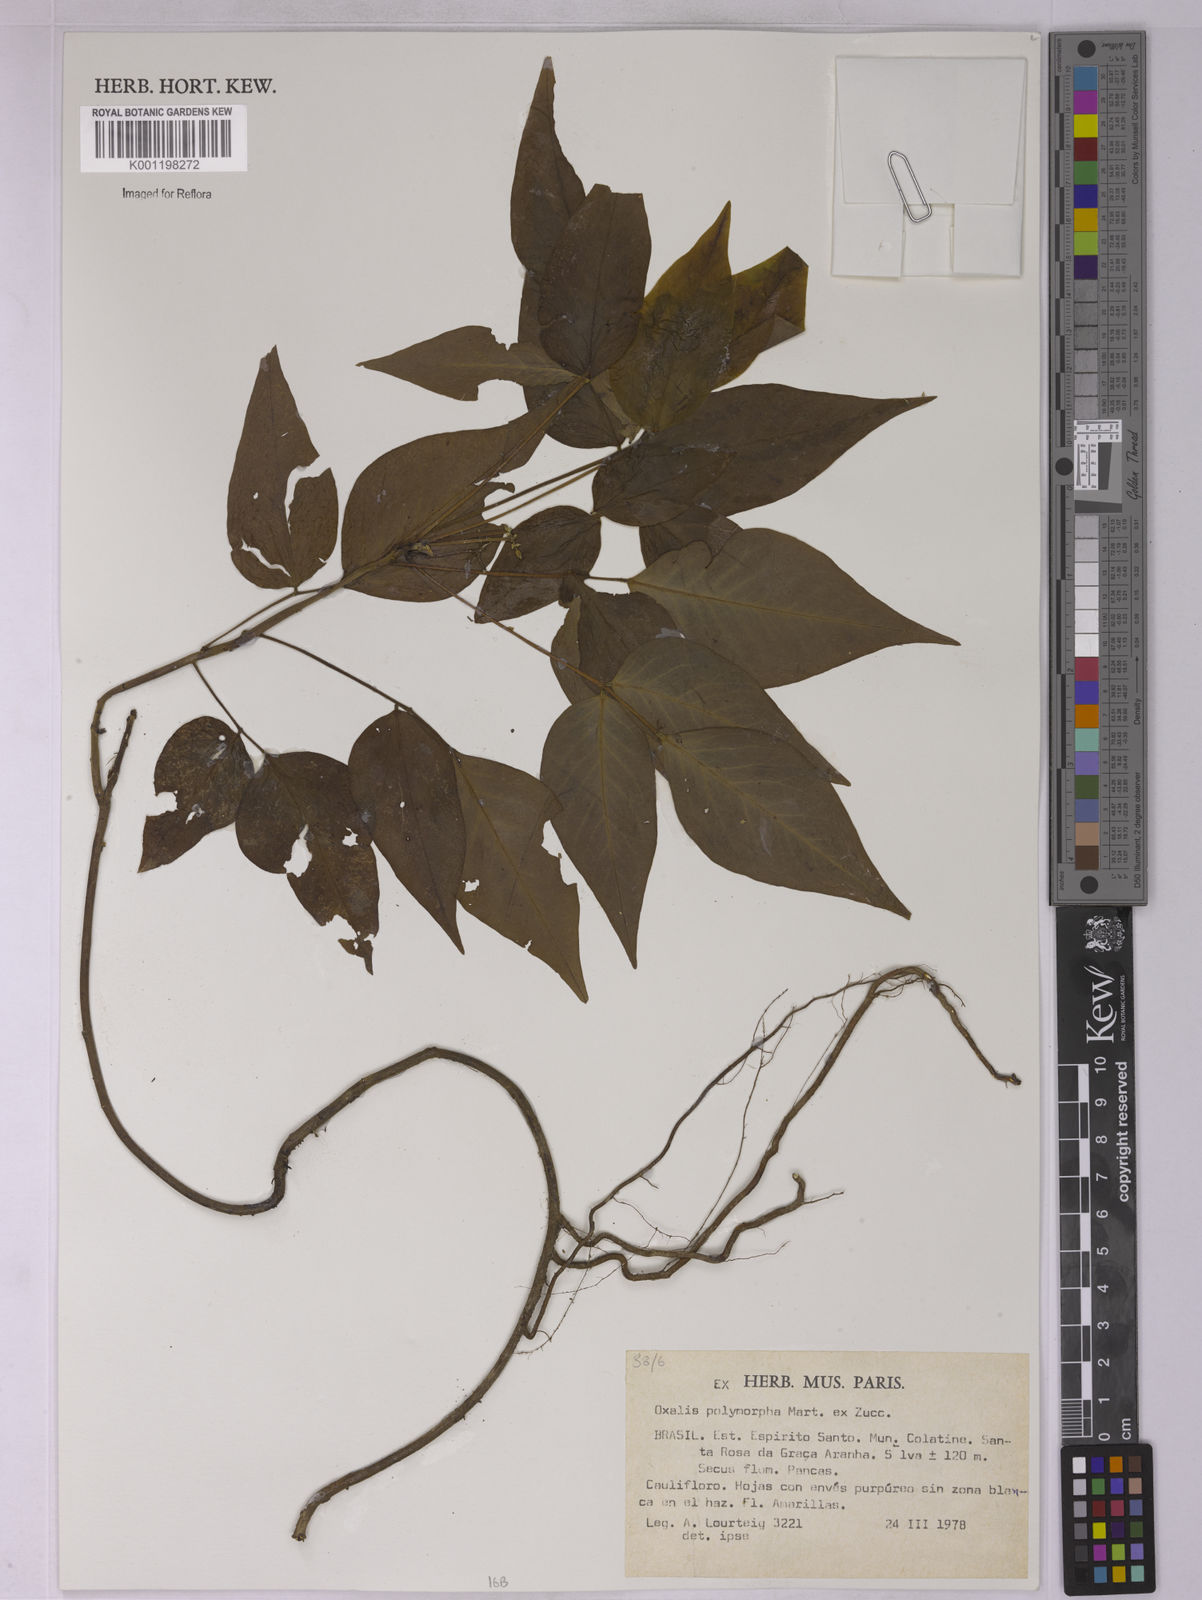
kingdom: Plantae
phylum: Tracheophyta
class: Magnoliopsida
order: Oxalidales
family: Oxalidaceae
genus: Oxalis
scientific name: Oxalis rhombeo-ovata
